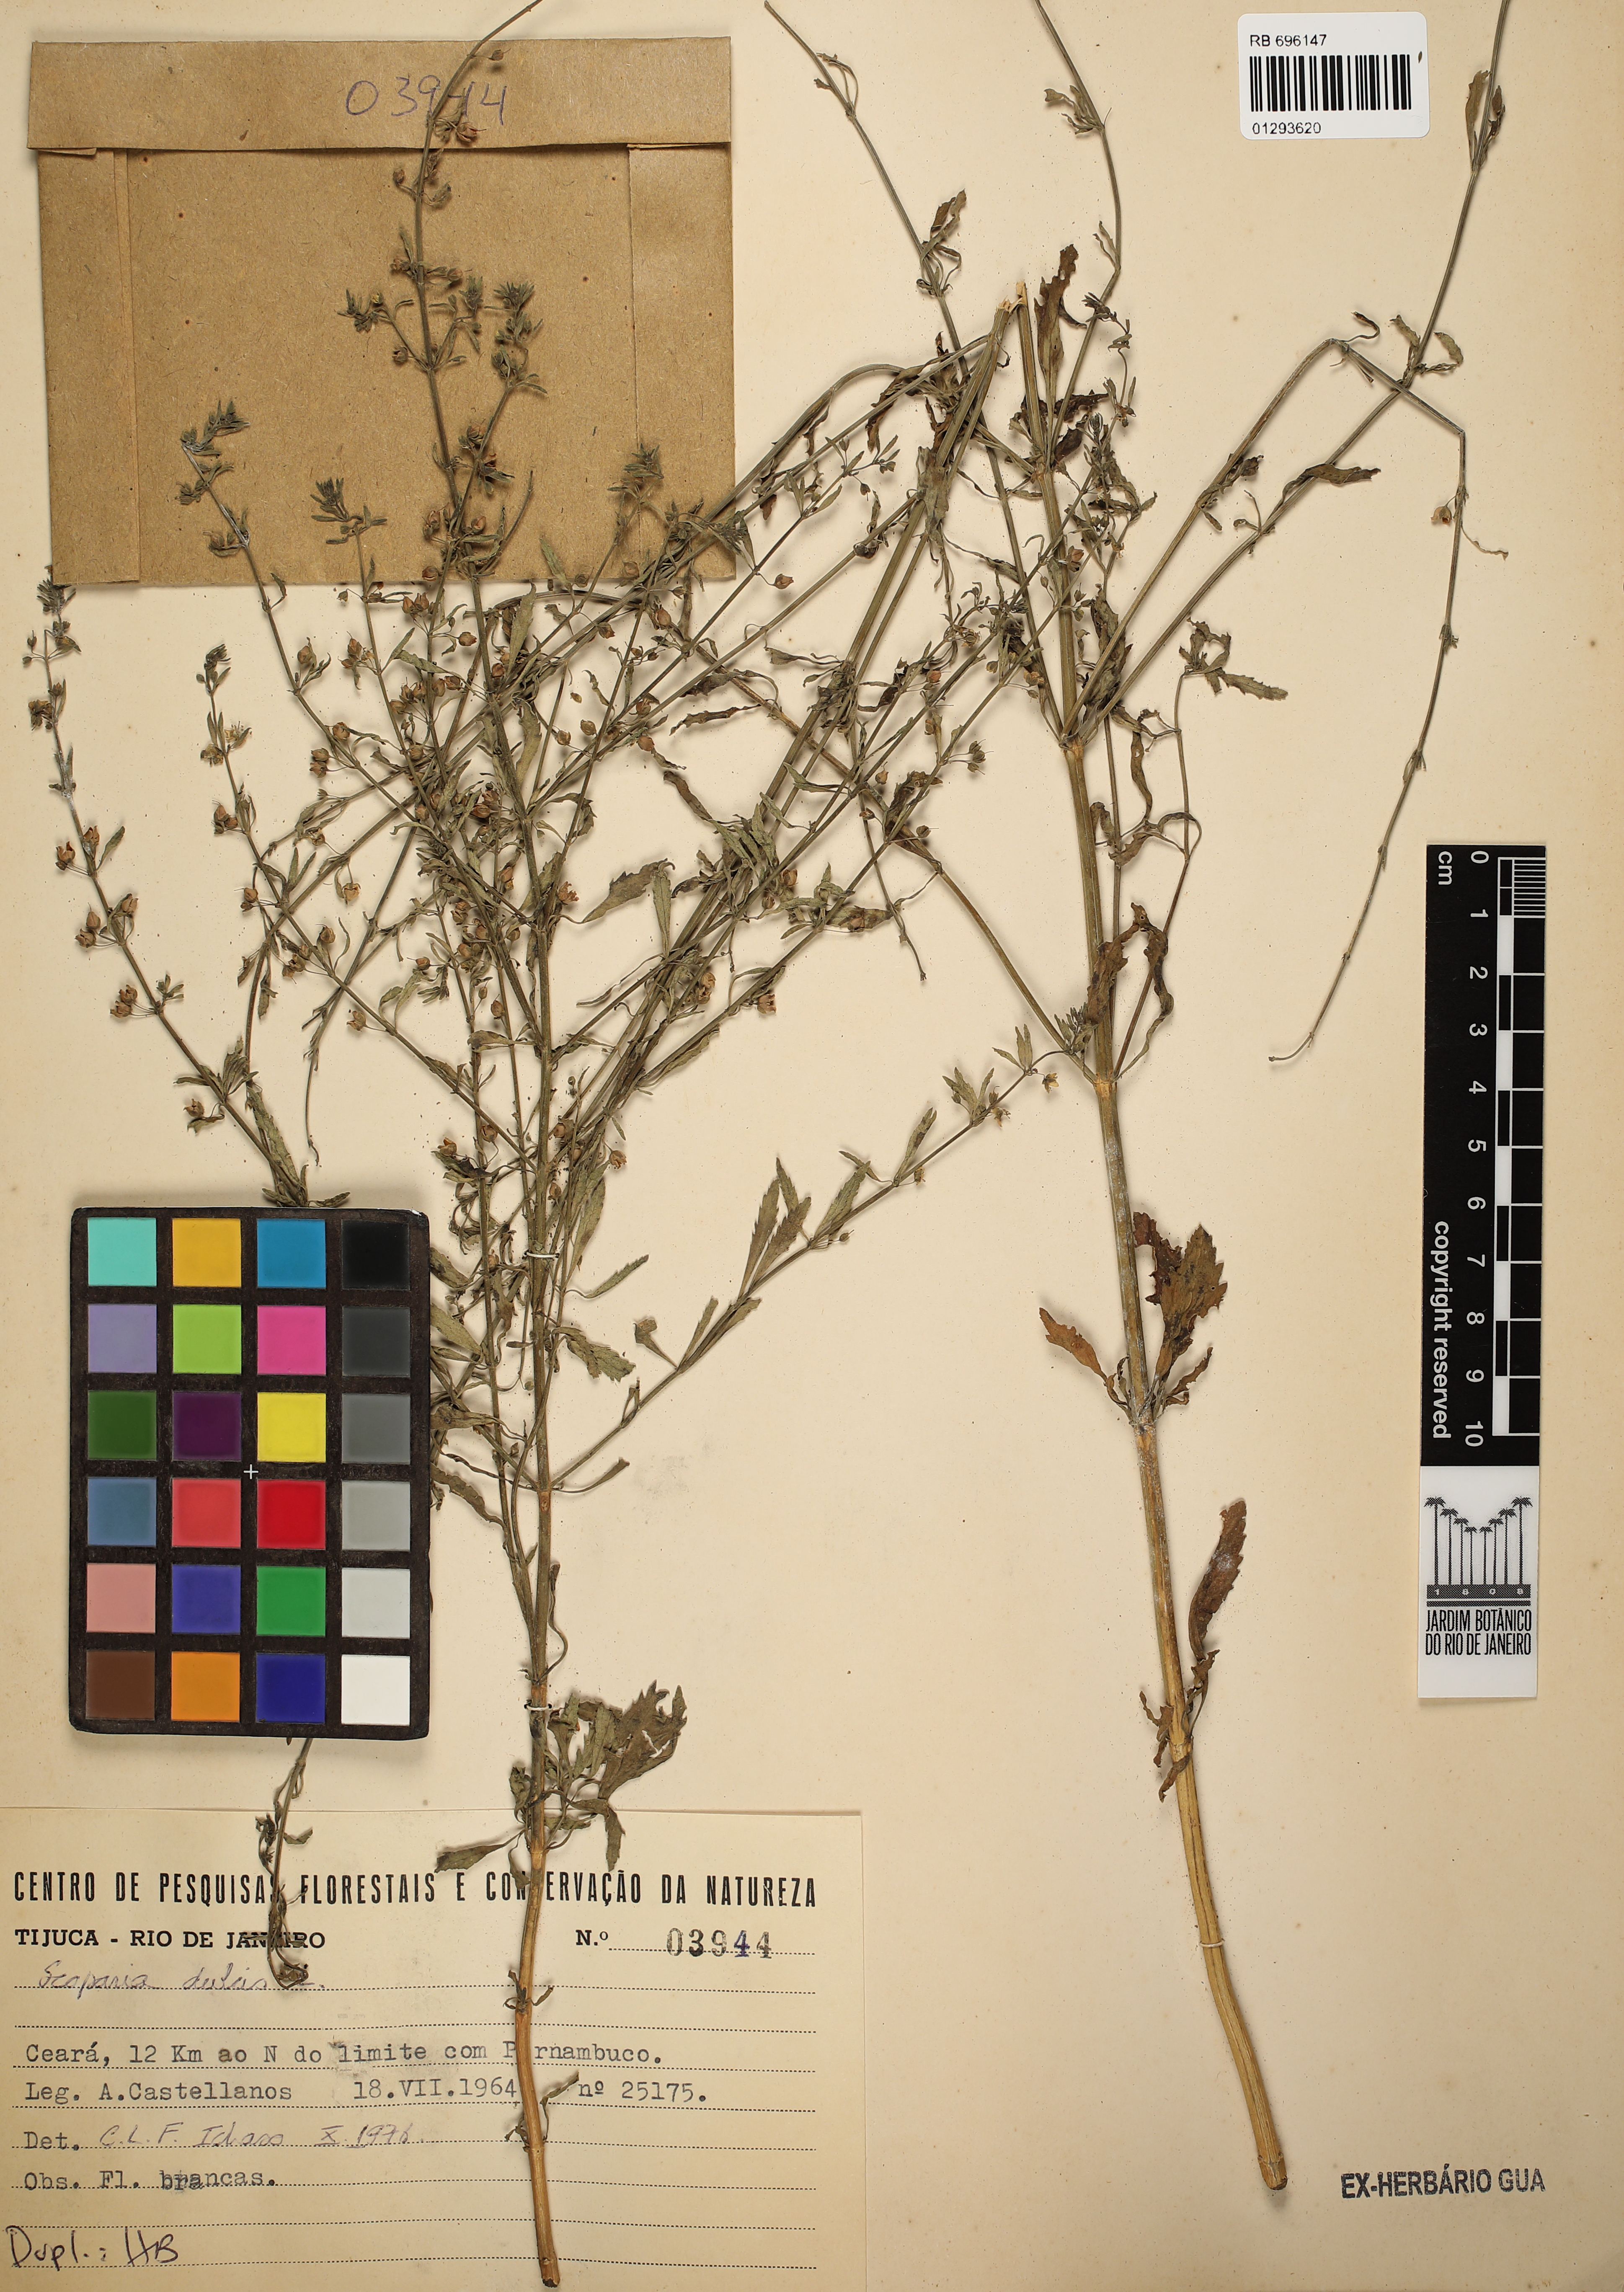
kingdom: Plantae
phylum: Tracheophyta
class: Magnoliopsida
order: Lamiales
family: Plantaginaceae
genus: Scoparia
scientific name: Scoparia dulcis
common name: Scoparia-weed
